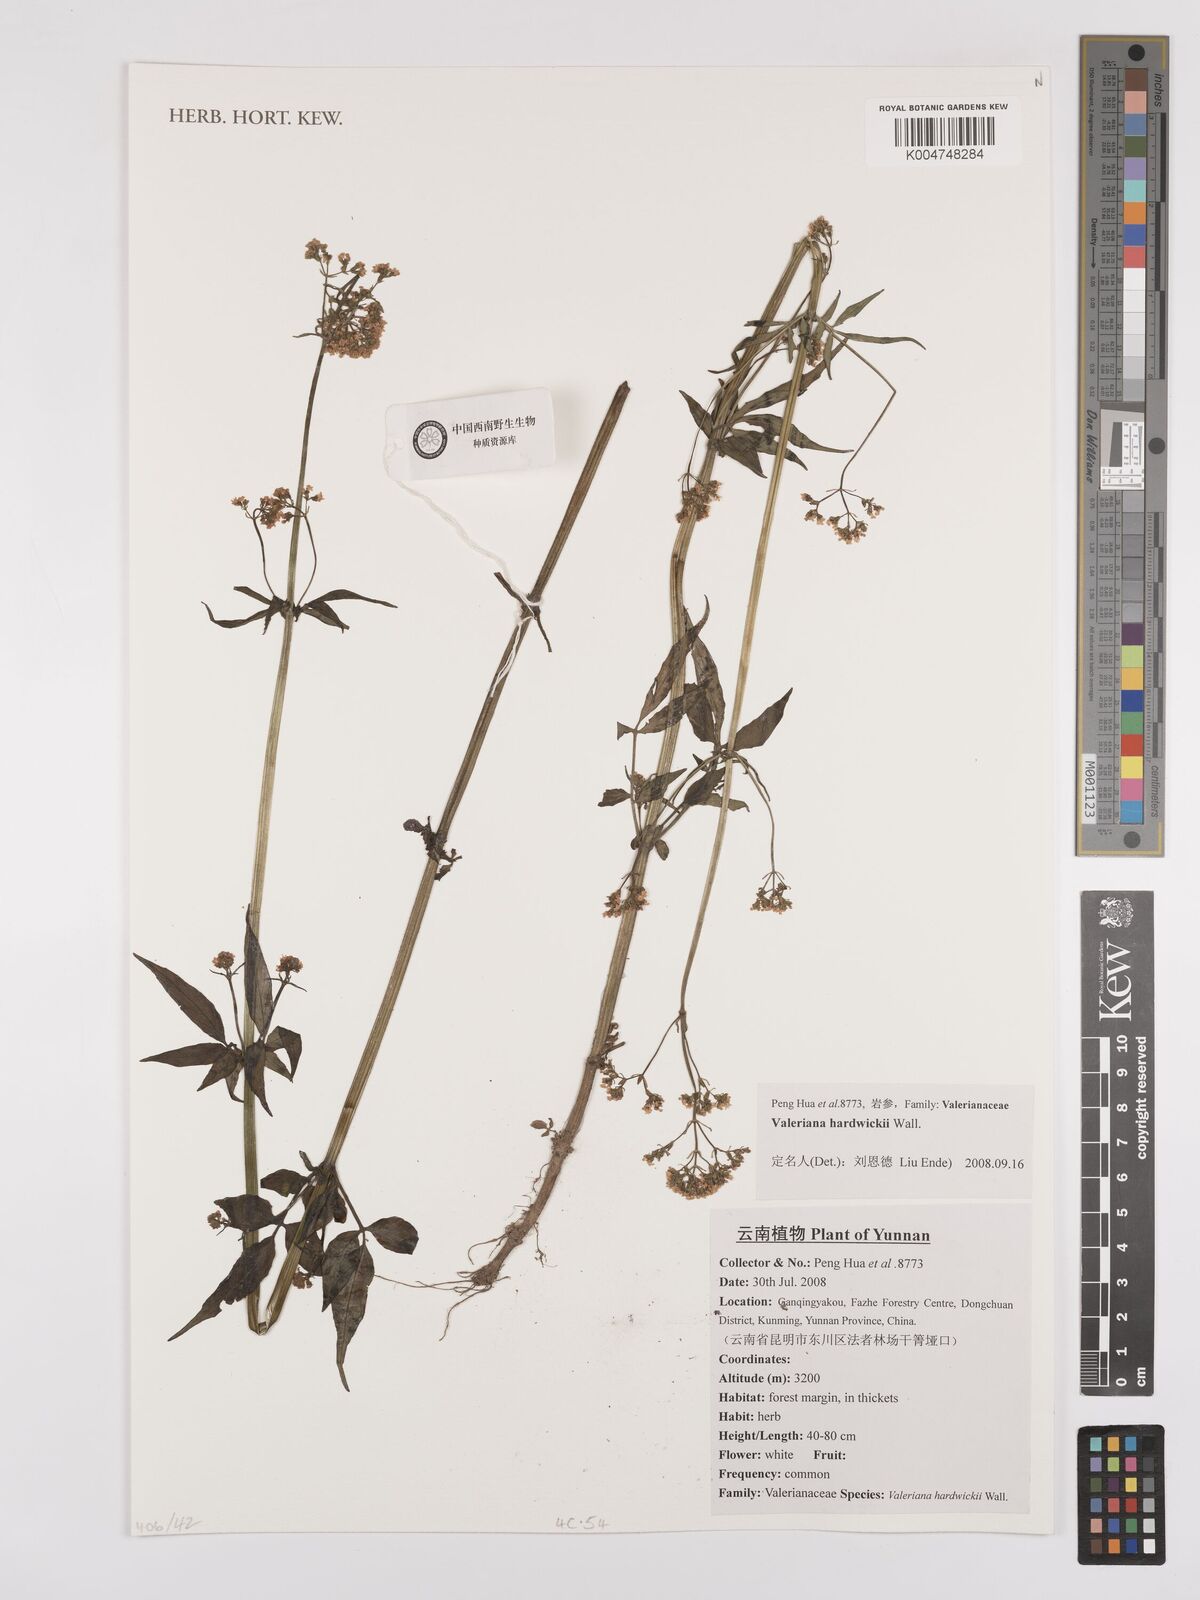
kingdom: Plantae
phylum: Tracheophyta
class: Magnoliopsida
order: Dipsacales
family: Caprifoliaceae
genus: Valeriana
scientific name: Valeriana hardwickei
